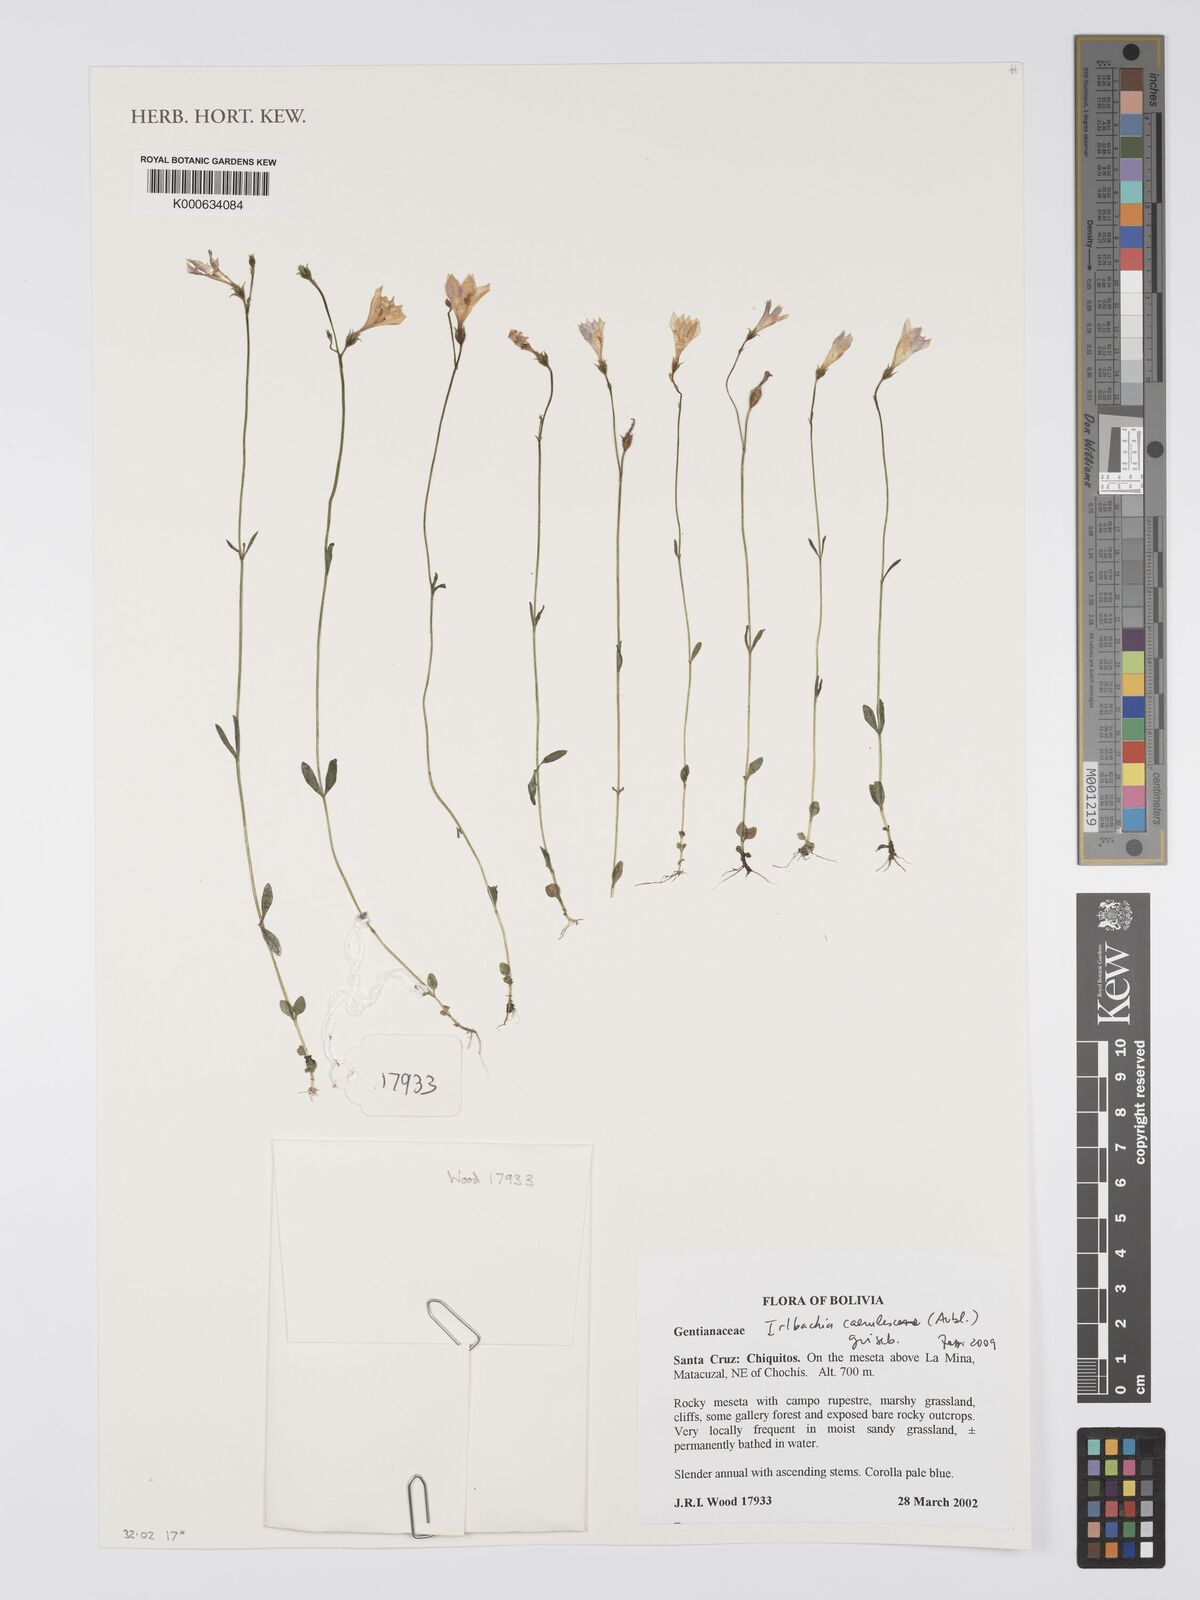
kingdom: Plantae
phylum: Tracheophyta
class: Magnoliopsida
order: Gentianales
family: Gentianaceae
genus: Tetrapollinia
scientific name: Tetrapollinia caerulescens
